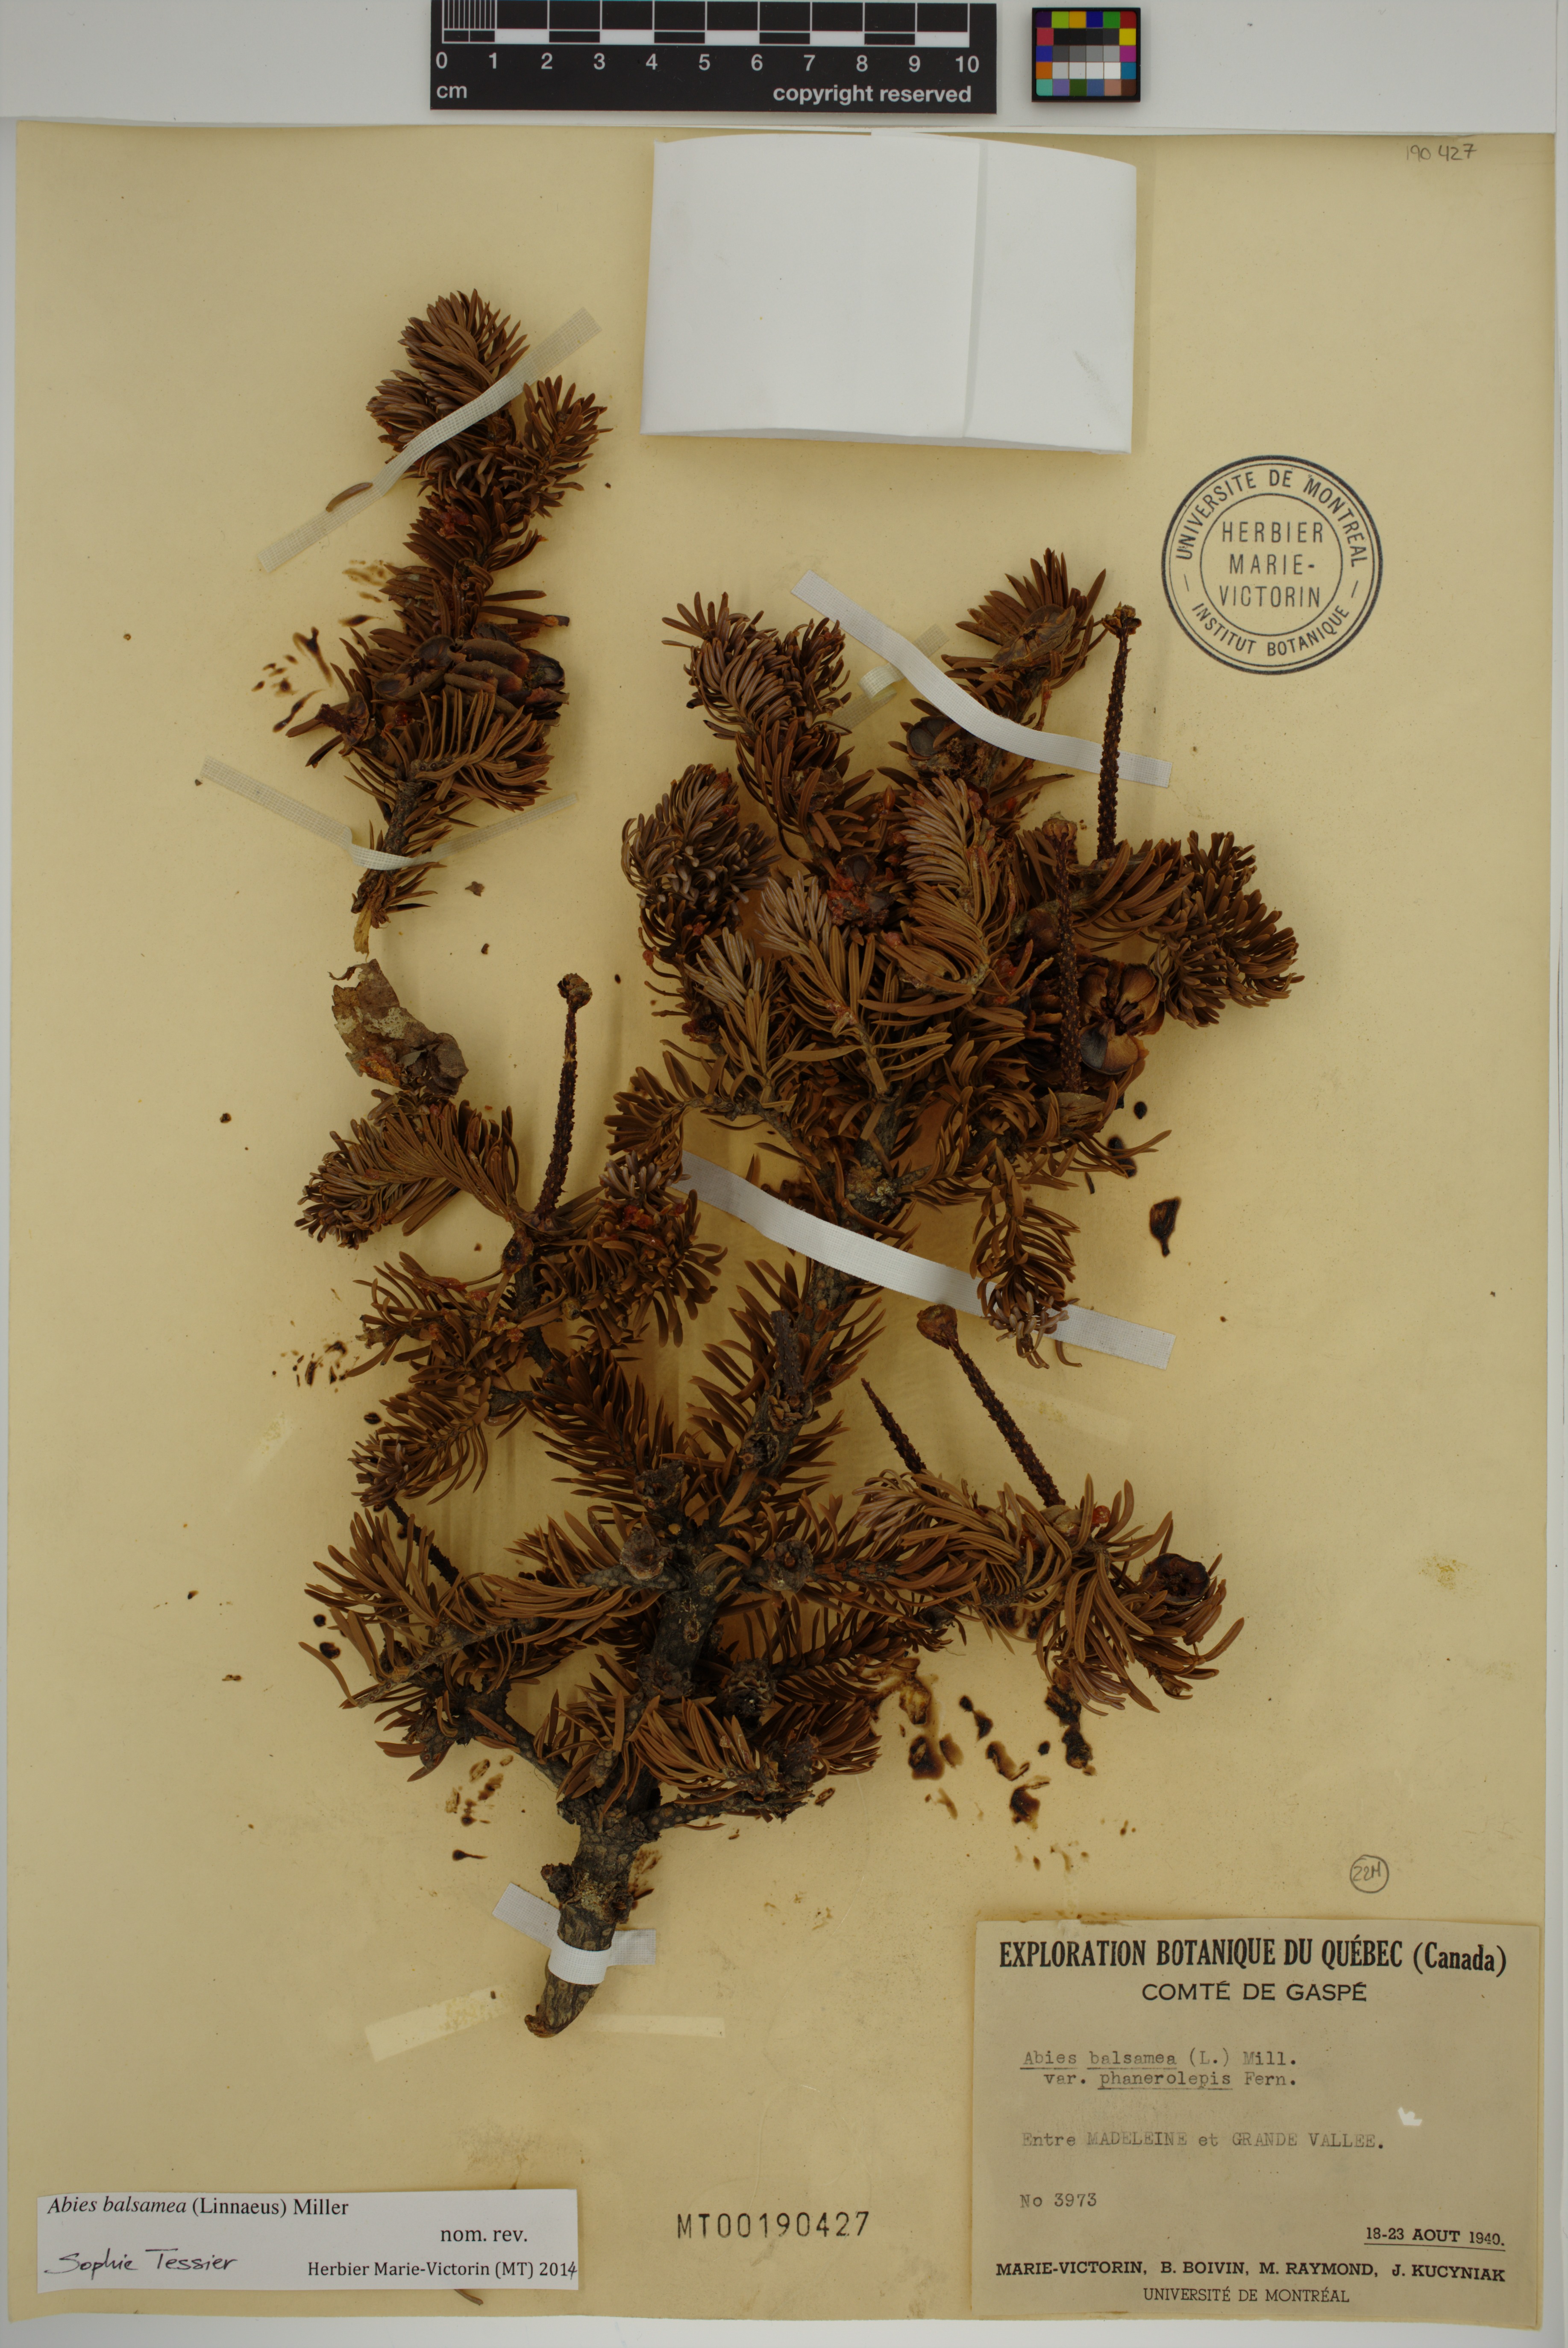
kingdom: Plantae
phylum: Tracheophyta
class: Pinopsida
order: Pinales
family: Pinaceae
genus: Abies
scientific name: Abies balsamea
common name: Balsam fir
